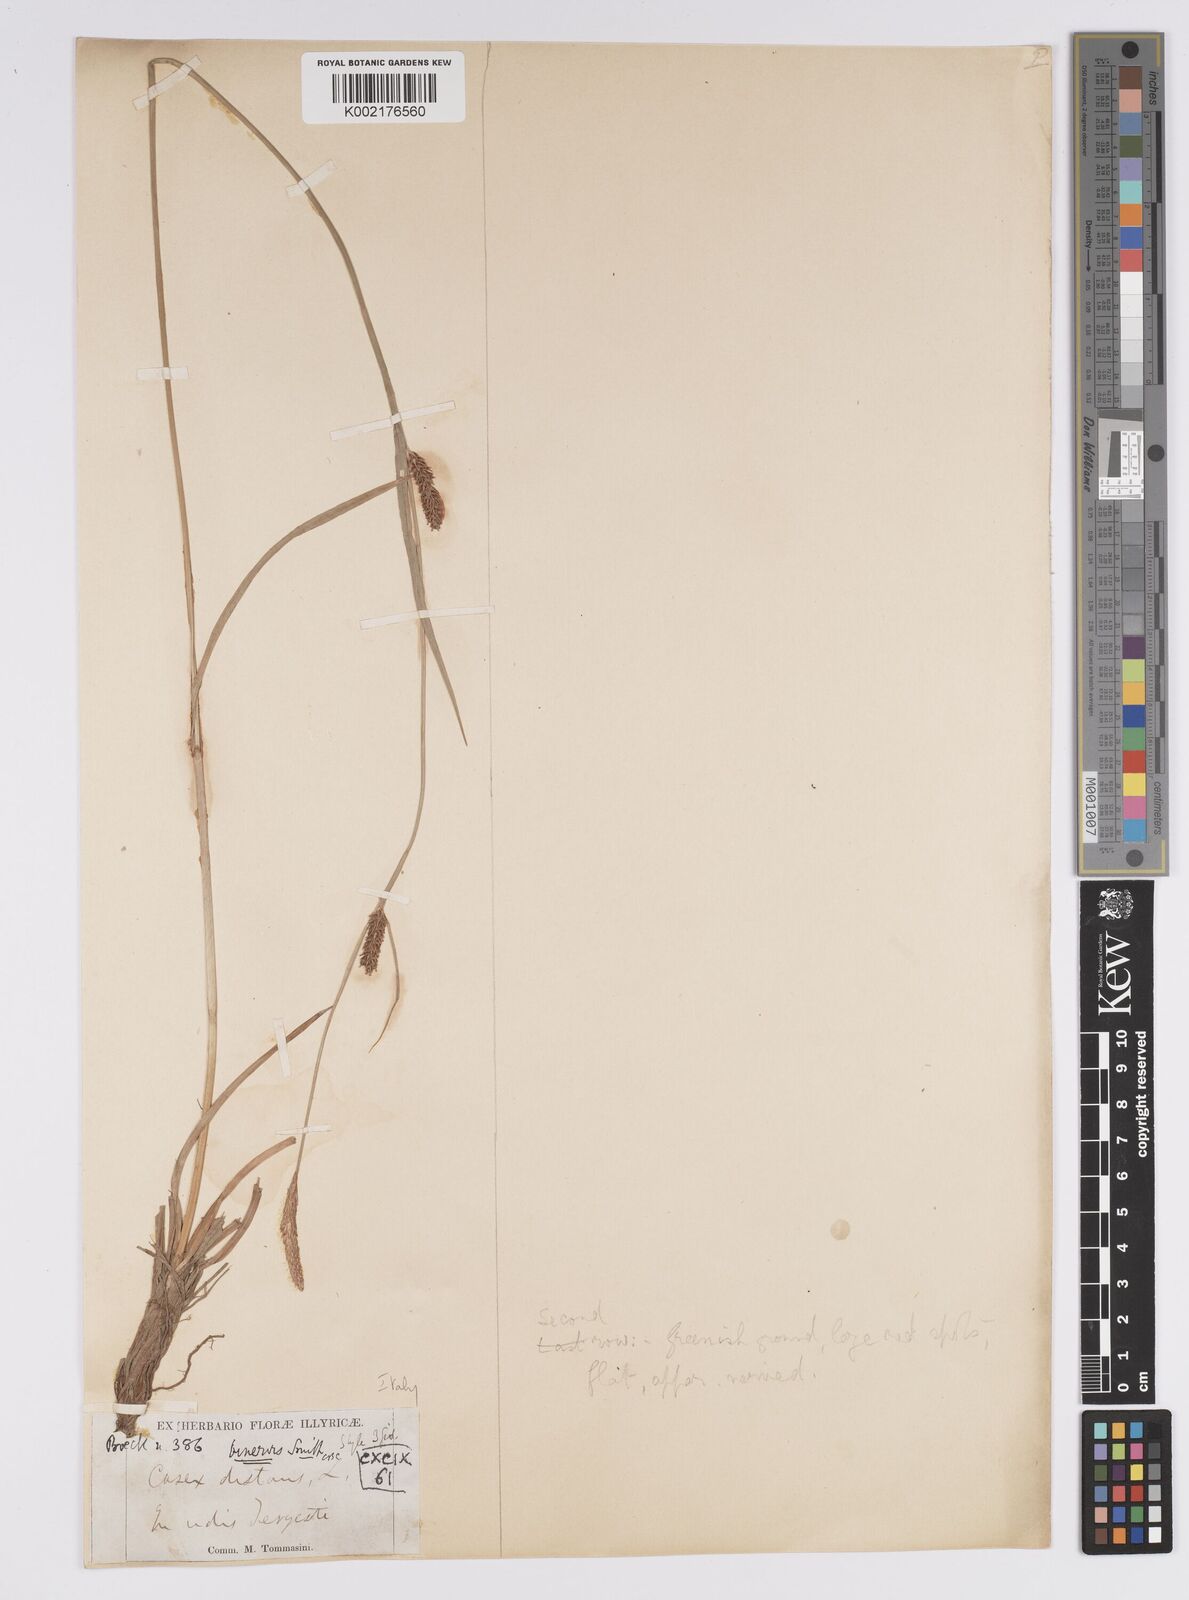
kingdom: Plantae
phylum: Tracheophyta
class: Liliopsida
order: Poales
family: Cyperaceae
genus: Carex
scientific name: Carex distans
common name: Distant sedge
